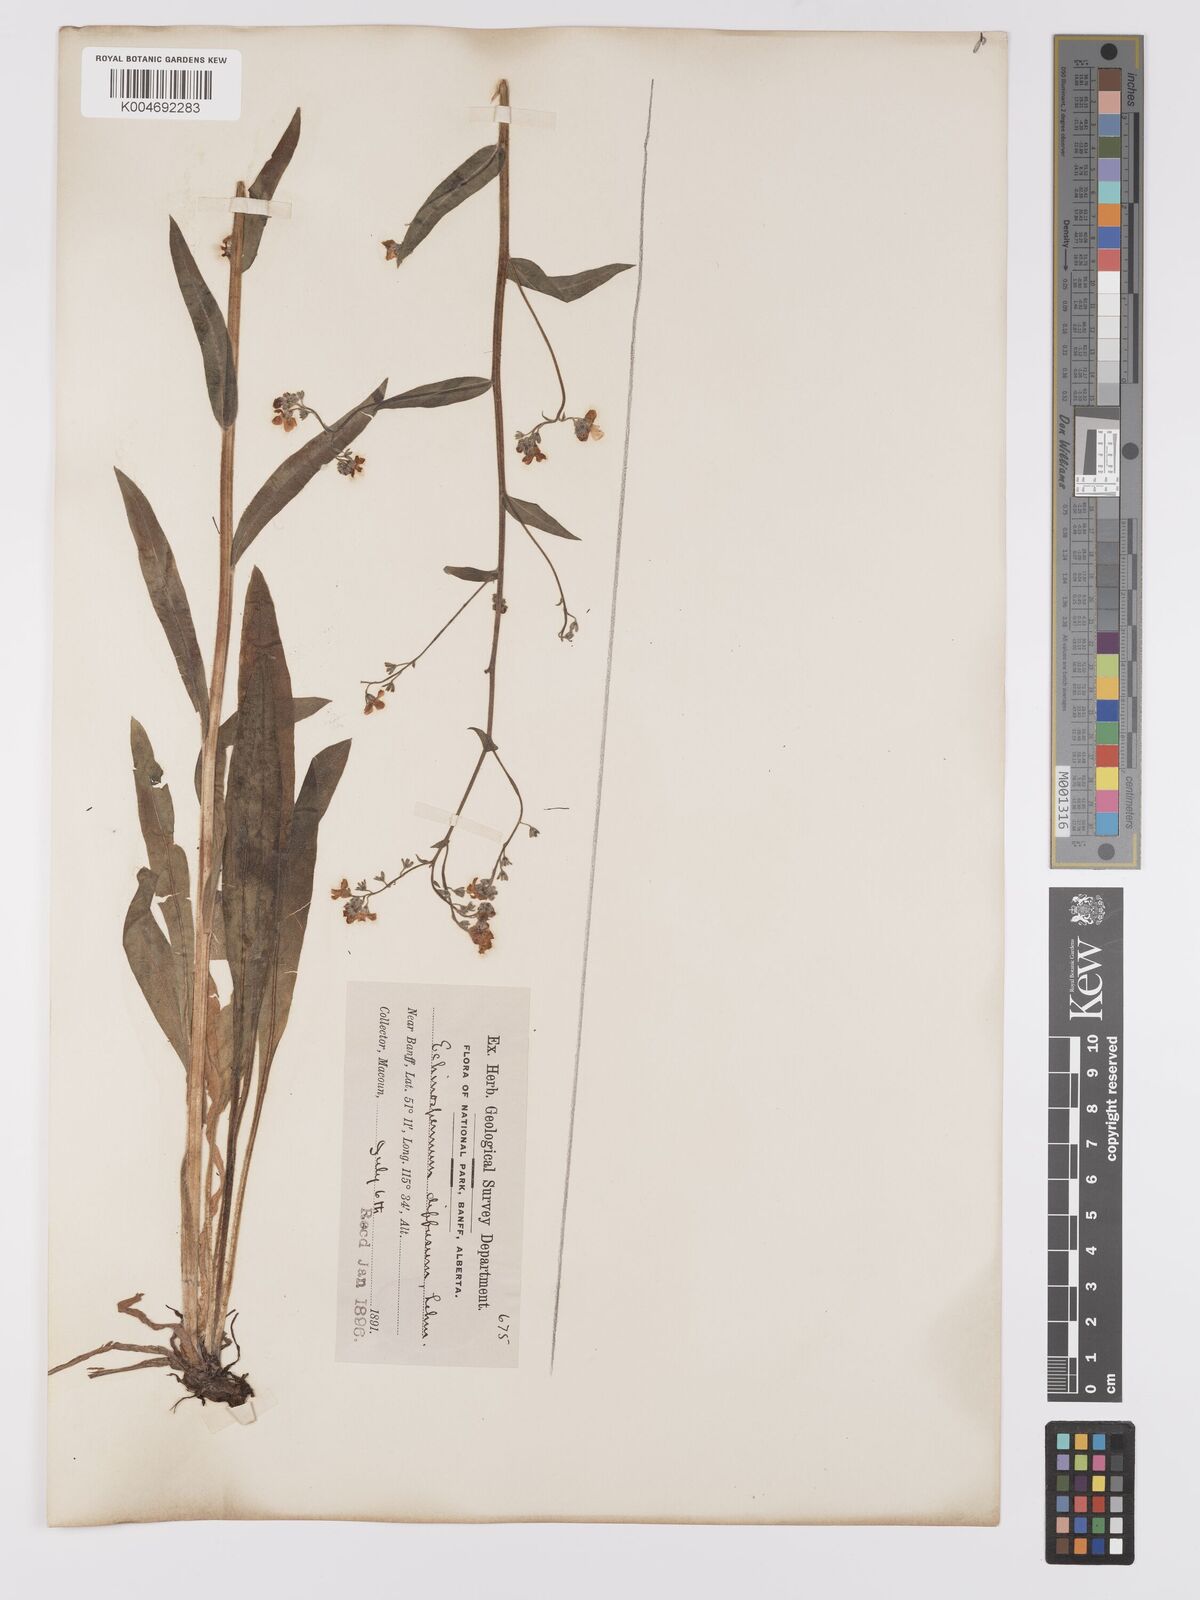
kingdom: Plantae
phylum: Tracheophyta
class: Magnoliopsida
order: Boraginales
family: Boraginaceae
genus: Hackelia
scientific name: Hackelia diffusa
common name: Spreading hackelia
